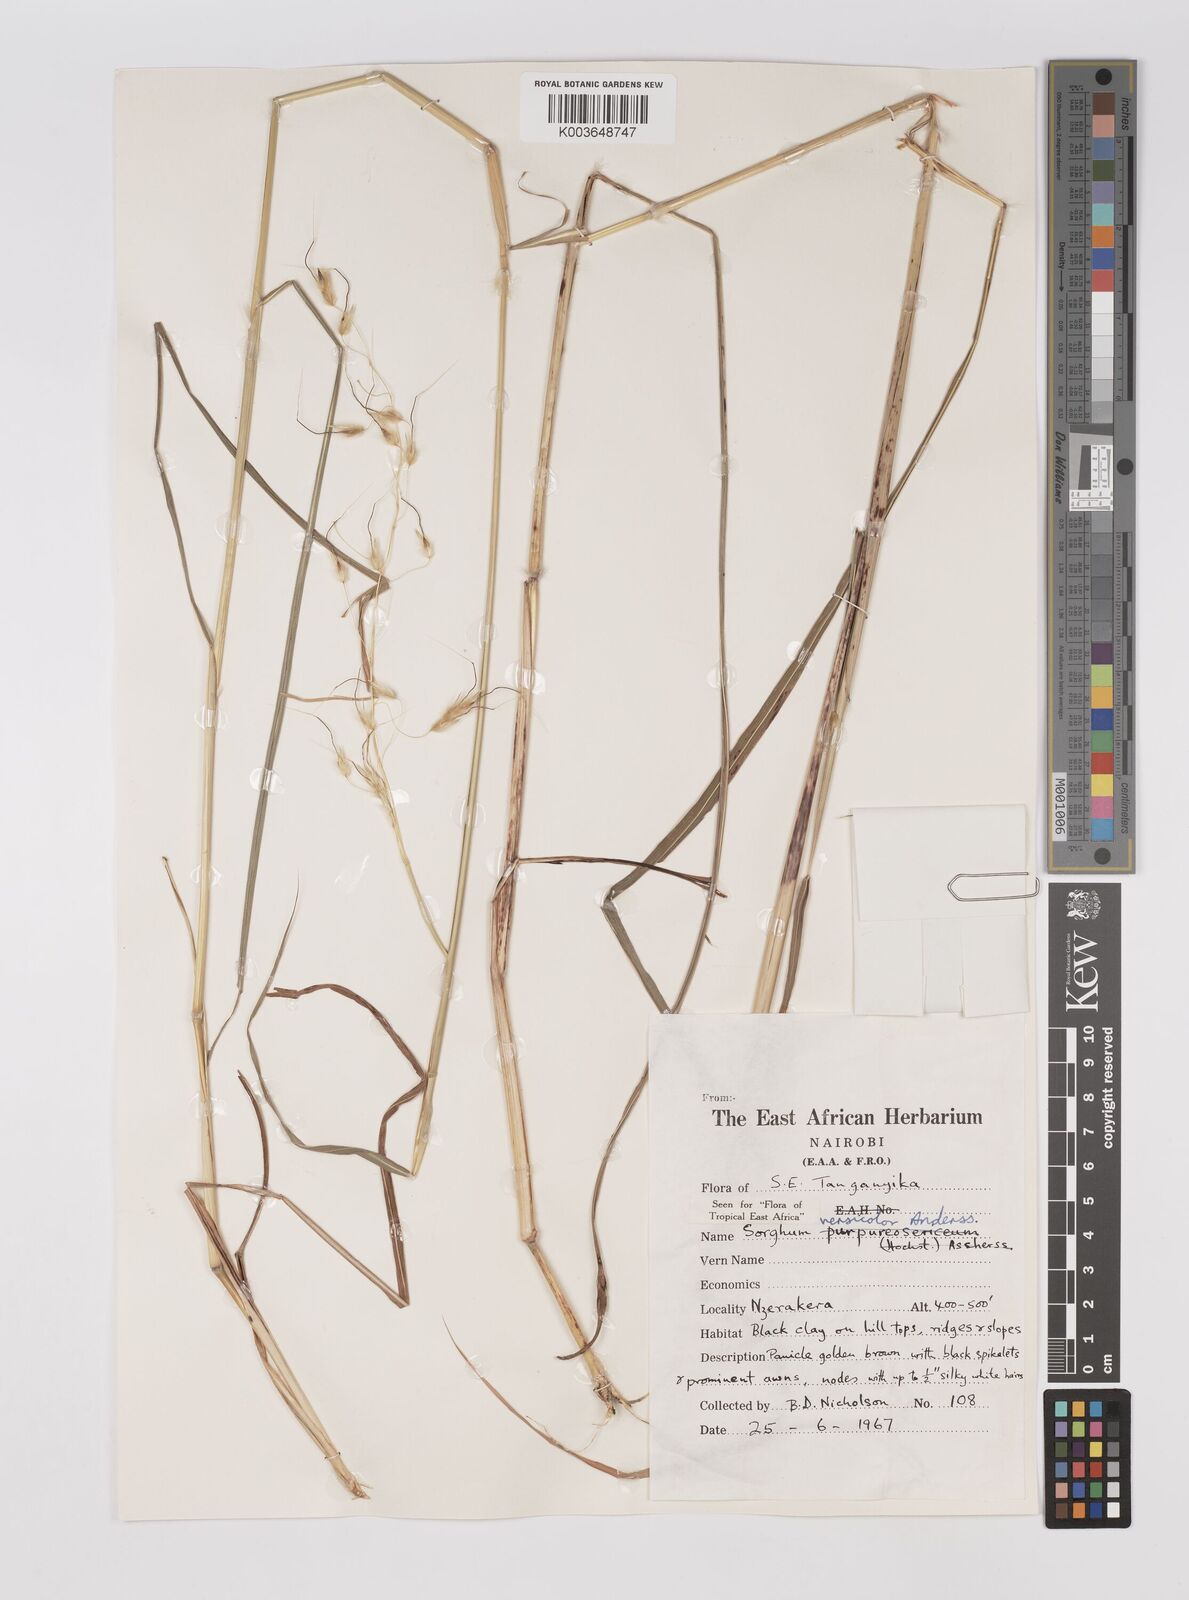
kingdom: Plantae
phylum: Tracheophyta
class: Liliopsida
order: Poales
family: Poaceae
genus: Sarga
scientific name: Sarga versicolor
